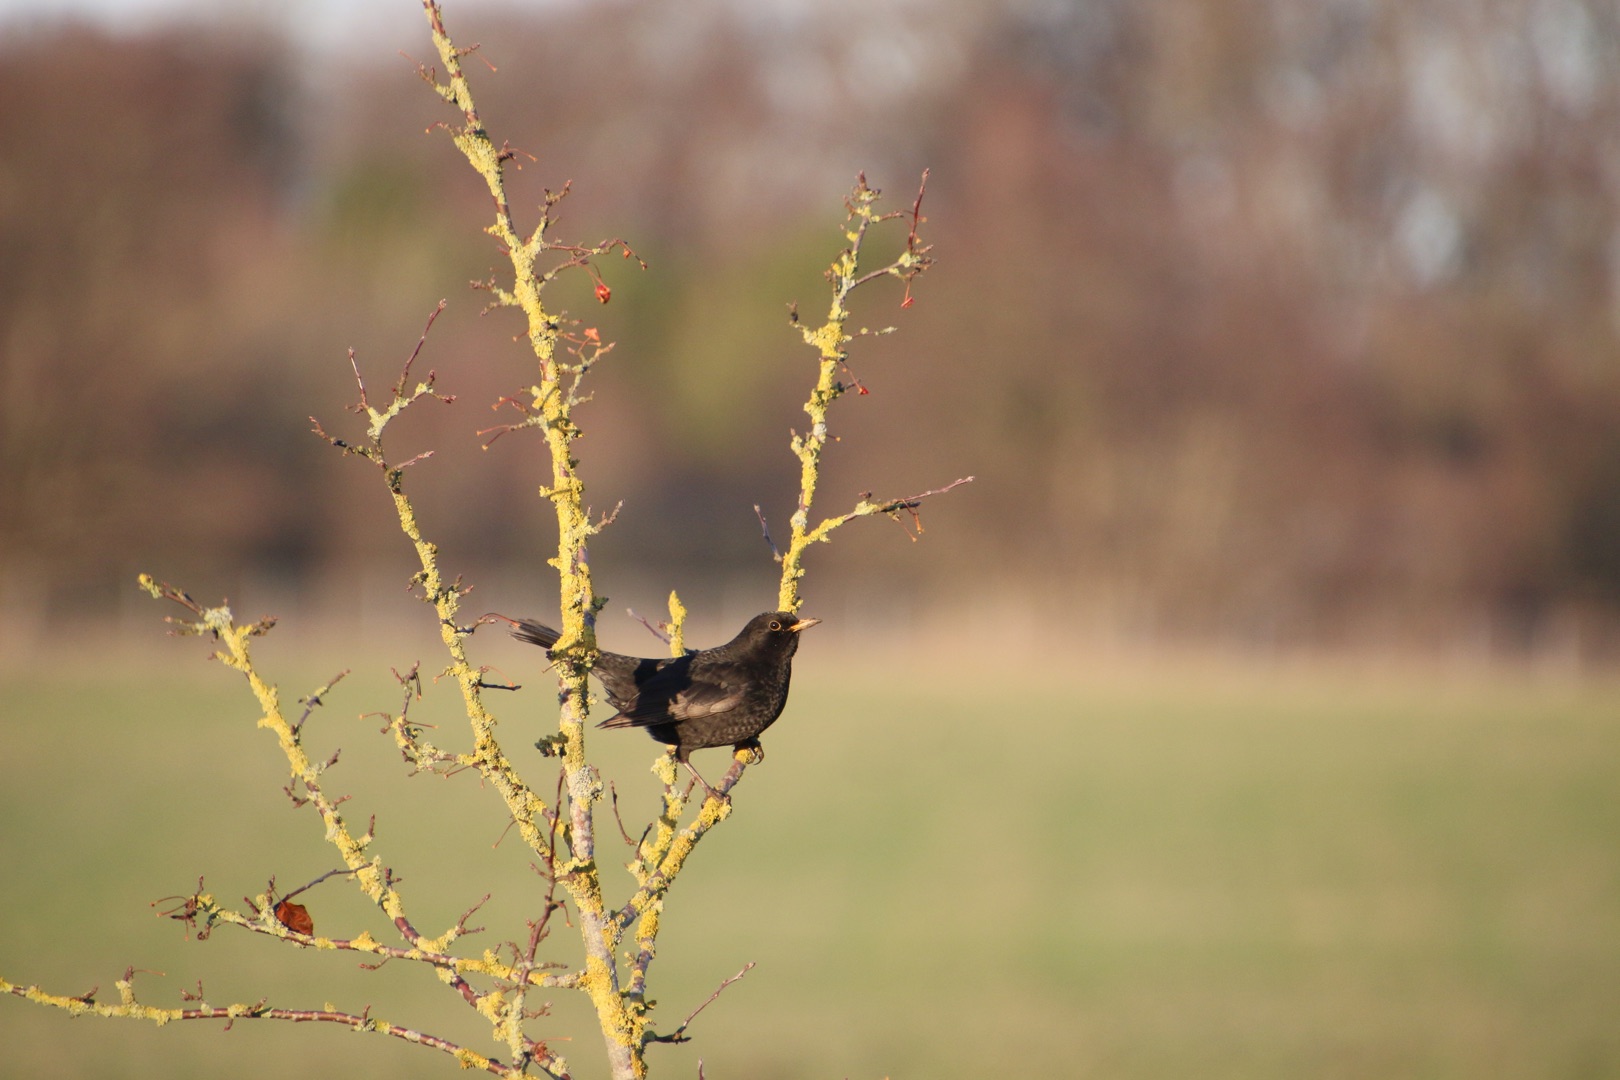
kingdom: Animalia
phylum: Chordata
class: Aves
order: Passeriformes
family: Turdidae
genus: Turdus
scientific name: Turdus merula
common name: Solsort
